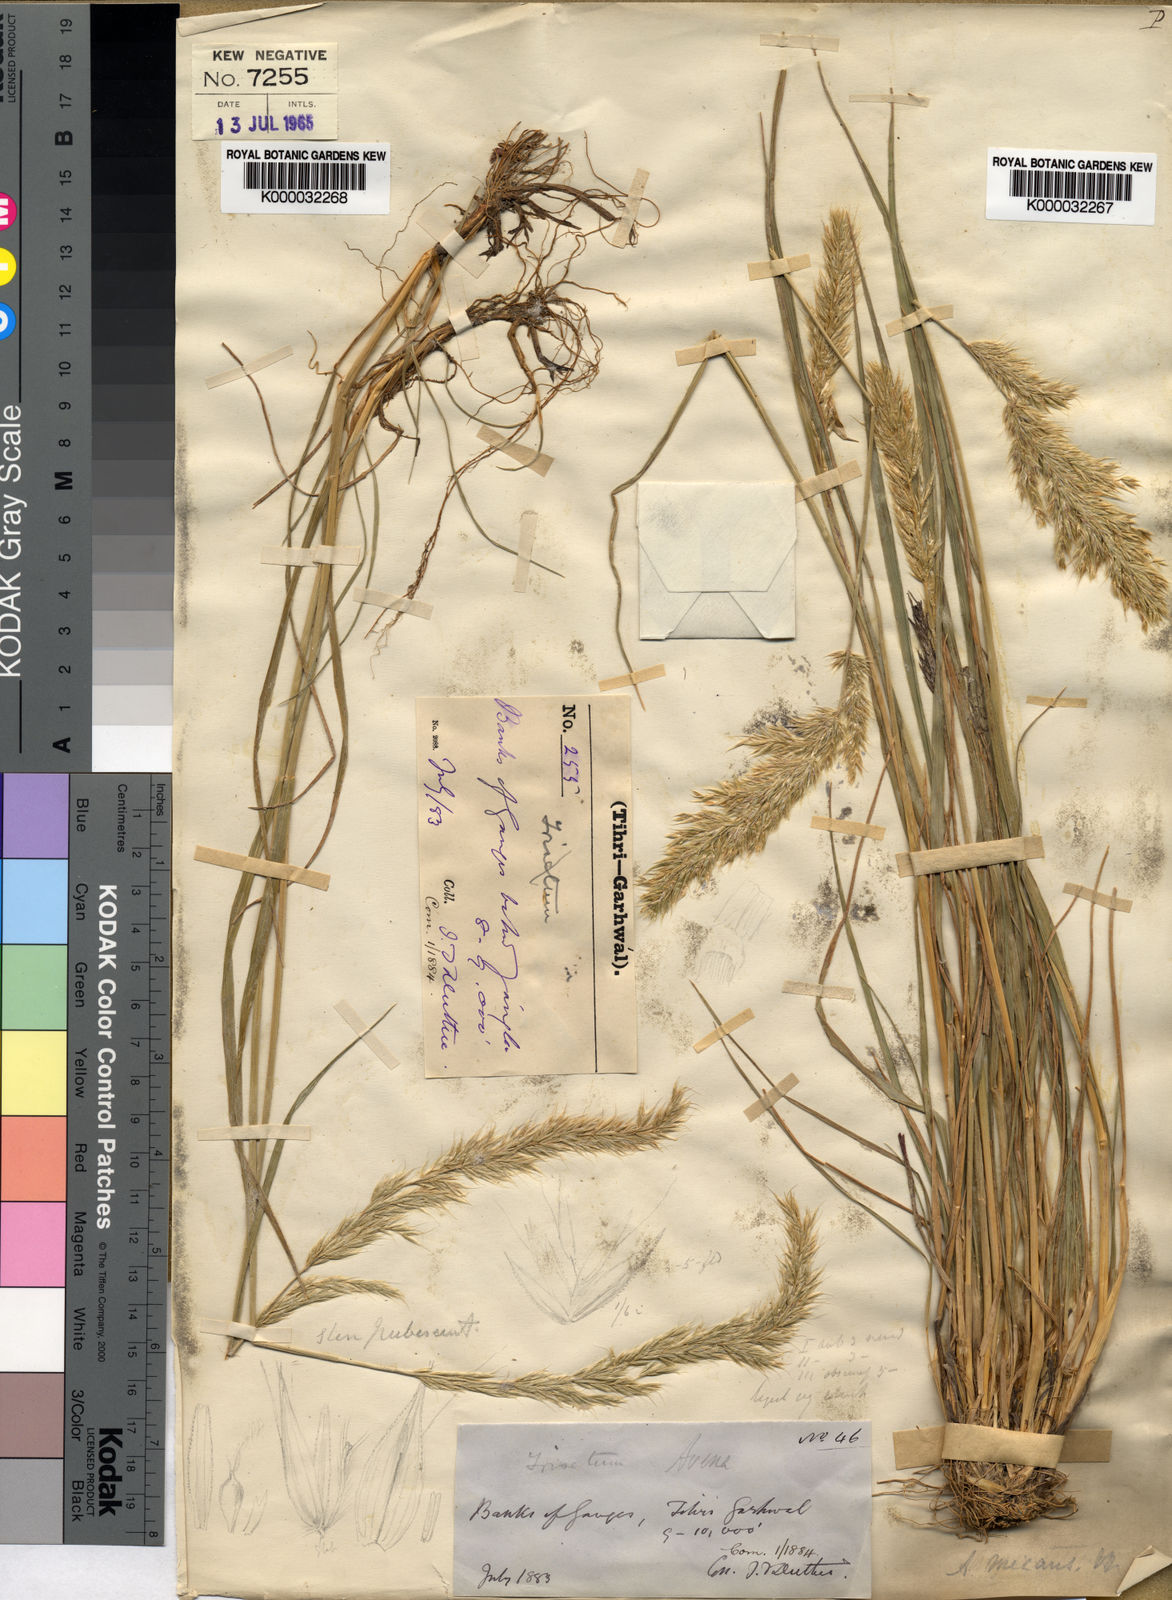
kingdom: Plantae
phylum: Tracheophyta
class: Liliopsida
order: Poales
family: Poaceae
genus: Koeleria
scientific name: Koeleria micans
